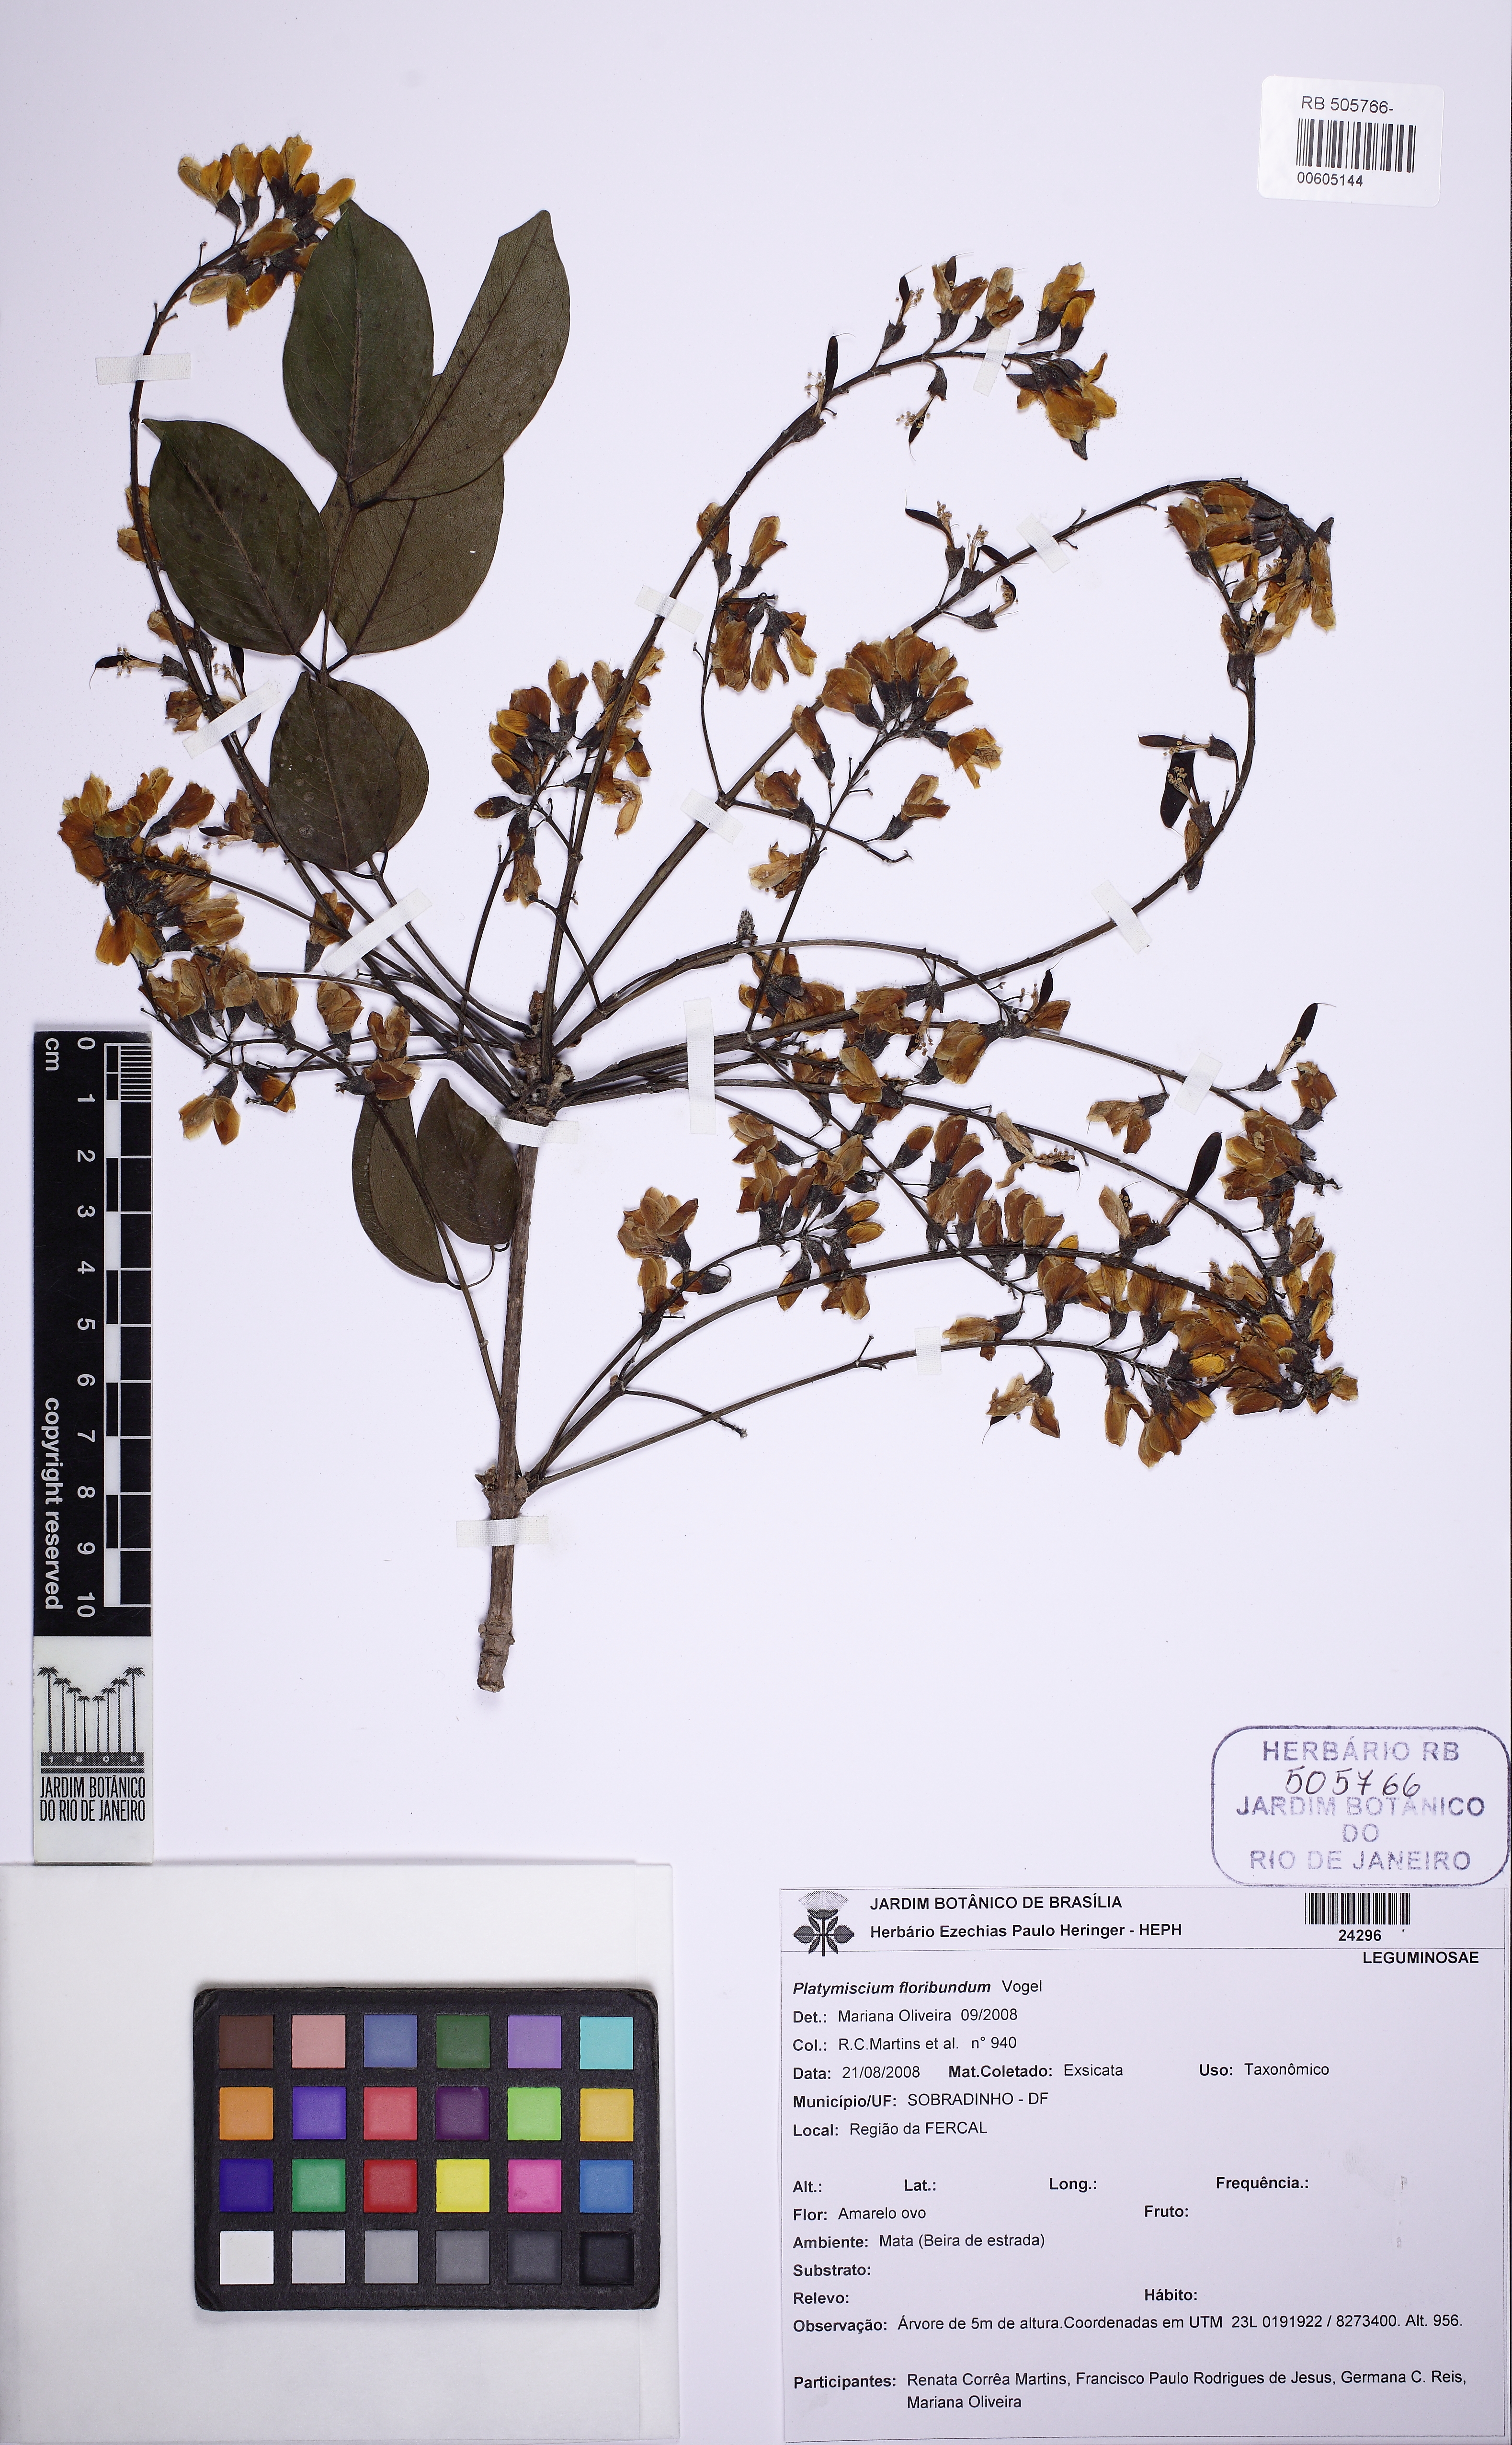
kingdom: Plantae
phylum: Tracheophyta
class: Magnoliopsida
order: Fabales
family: Fabaceae
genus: Platymiscium
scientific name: Platymiscium floribundum
